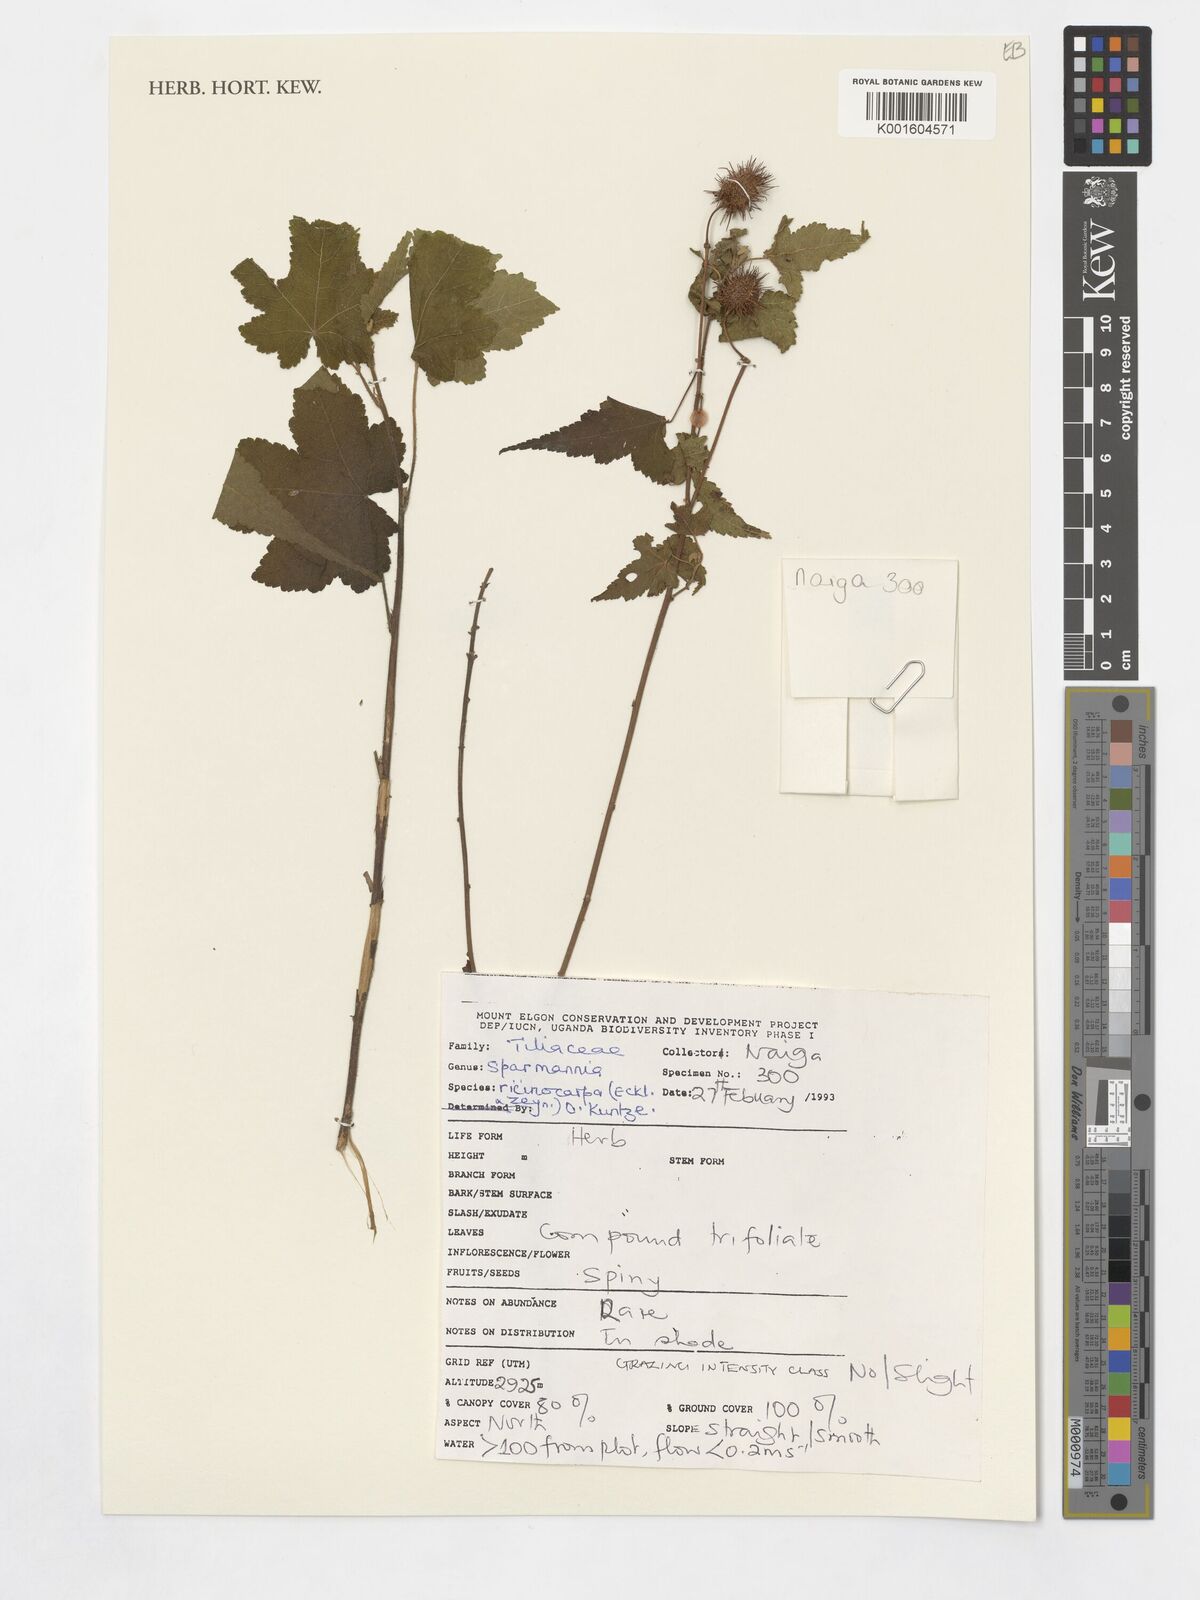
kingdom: Plantae
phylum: Tracheophyta
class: Magnoliopsida
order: Malvales
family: Malvaceae
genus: Sparmannia
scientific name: Sparmannia
